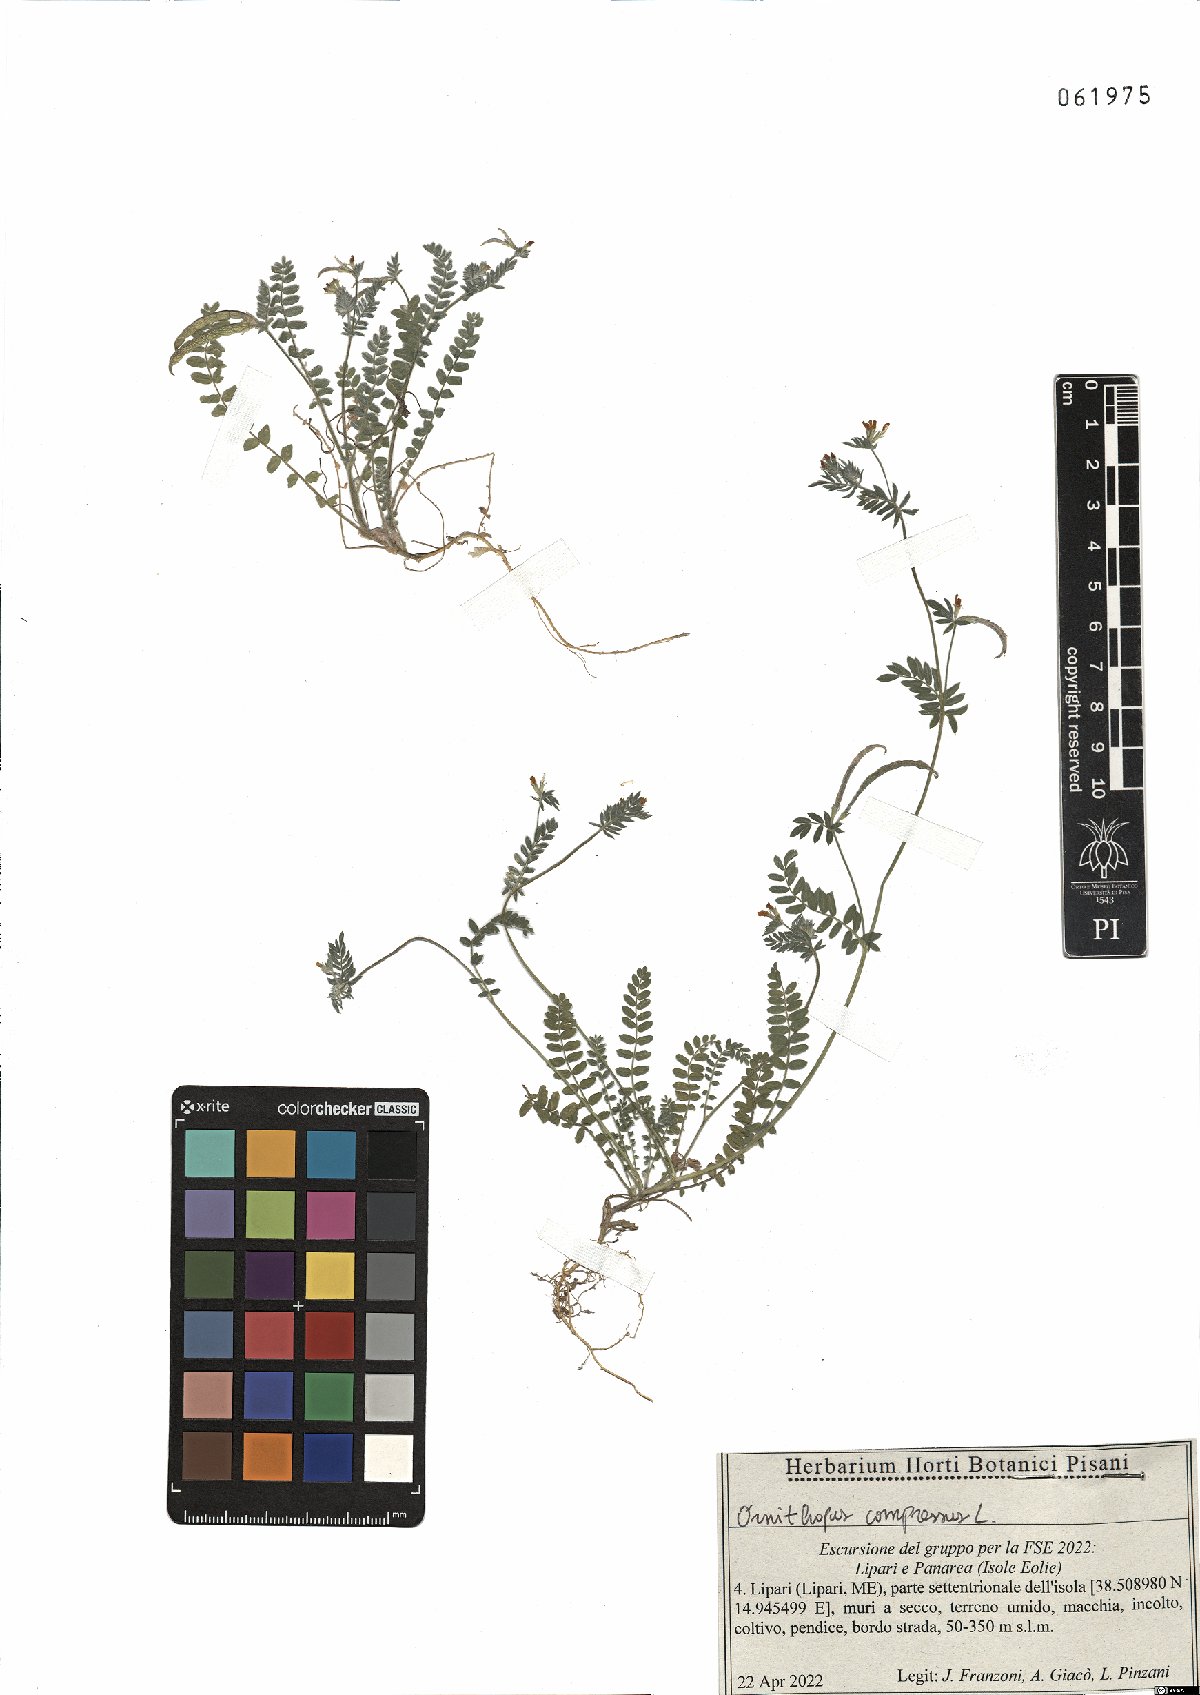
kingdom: Plantae
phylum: Tracheophyta
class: Magnoliopsida
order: Fabales
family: Fabaceae
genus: Ornithopus
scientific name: Ornithopus compressus
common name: Yellow serradella
